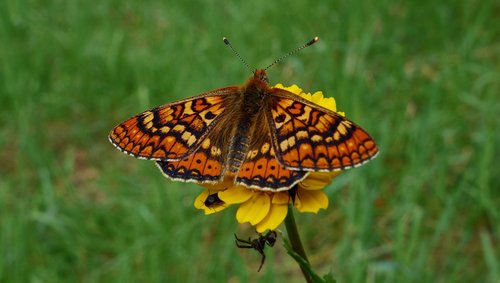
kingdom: Animalia
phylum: Arthropoda
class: Insecta
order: Lepidoptera
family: Nymphalidae
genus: Euphydryas
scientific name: Euphydryas aurinia
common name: Marsh fritillary
